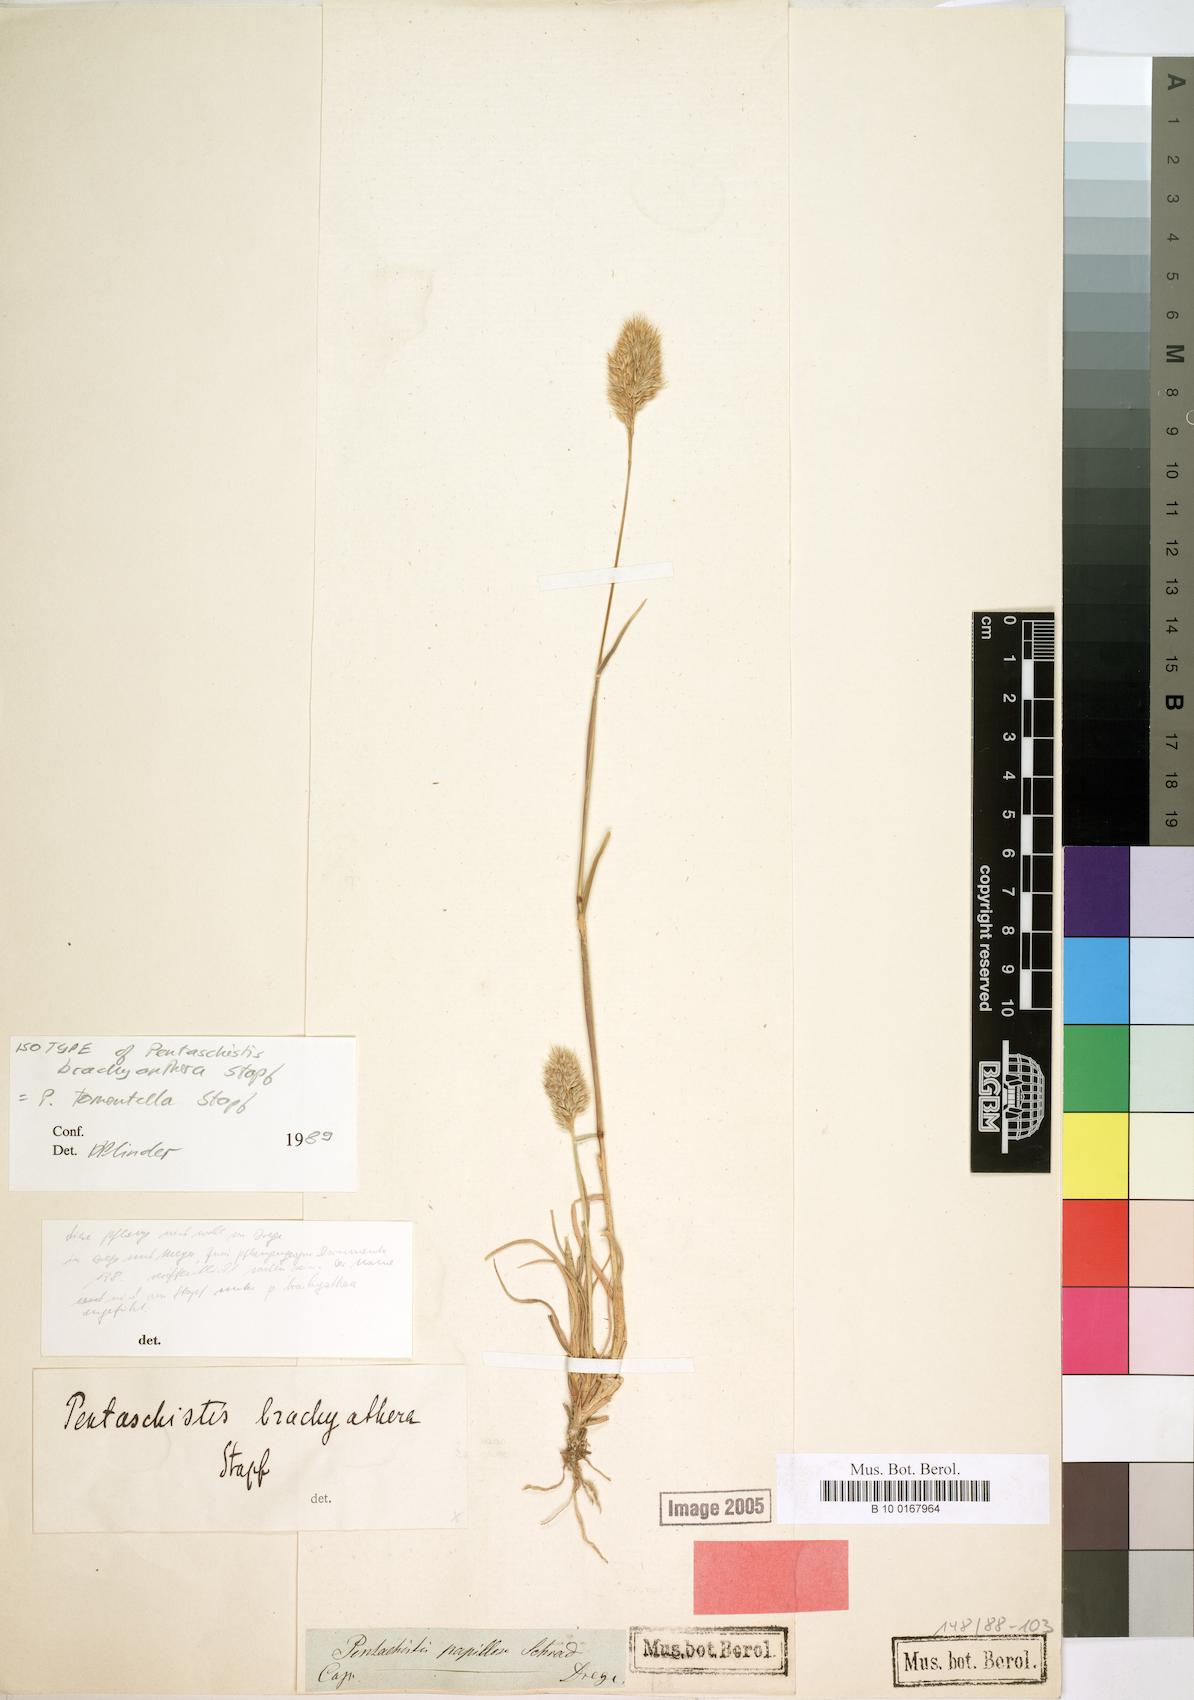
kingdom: Plantae
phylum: Tracheophyta
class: Liliopsida
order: Poales
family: Poaceae
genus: Pentameris
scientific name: Pentameris tomentella
